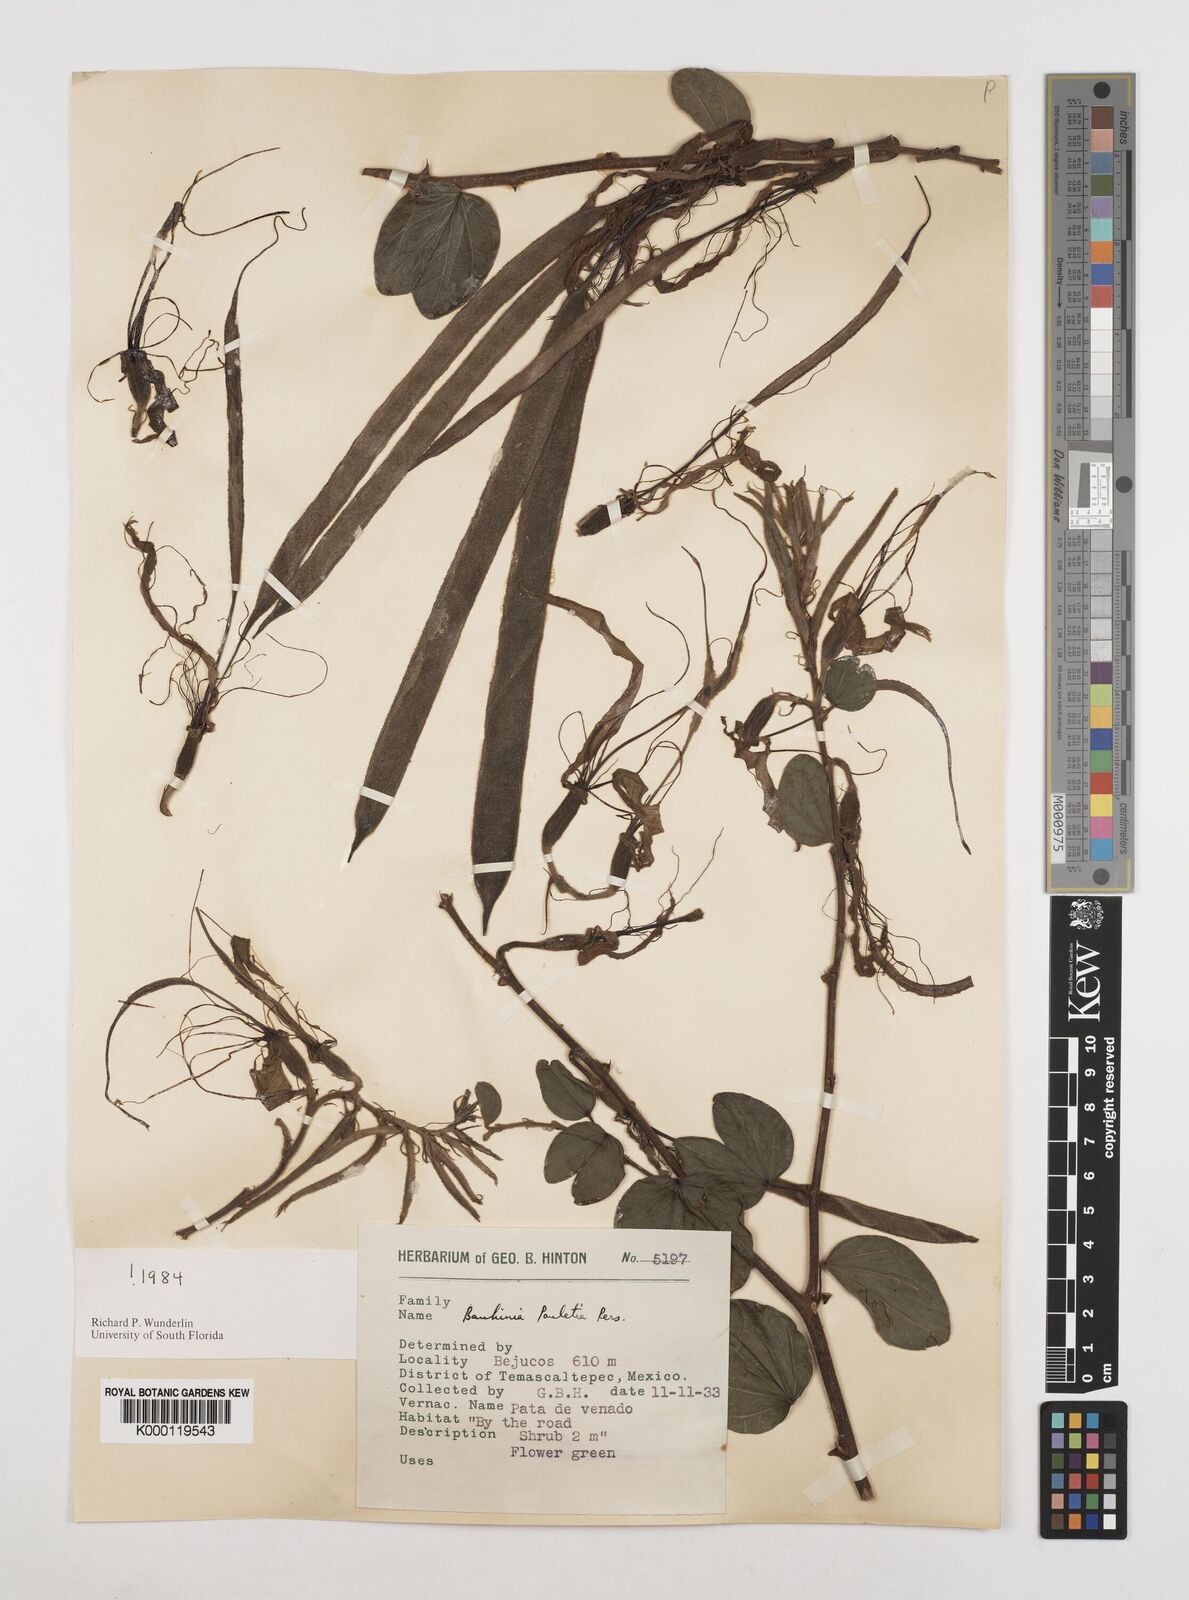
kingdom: Plantae
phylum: Tracheophyta
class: Magnoliopsida
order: Fabales
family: Fabaceae
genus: Bauhinia
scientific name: Bauhinia pauletia
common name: Railway-fence bauhinia
